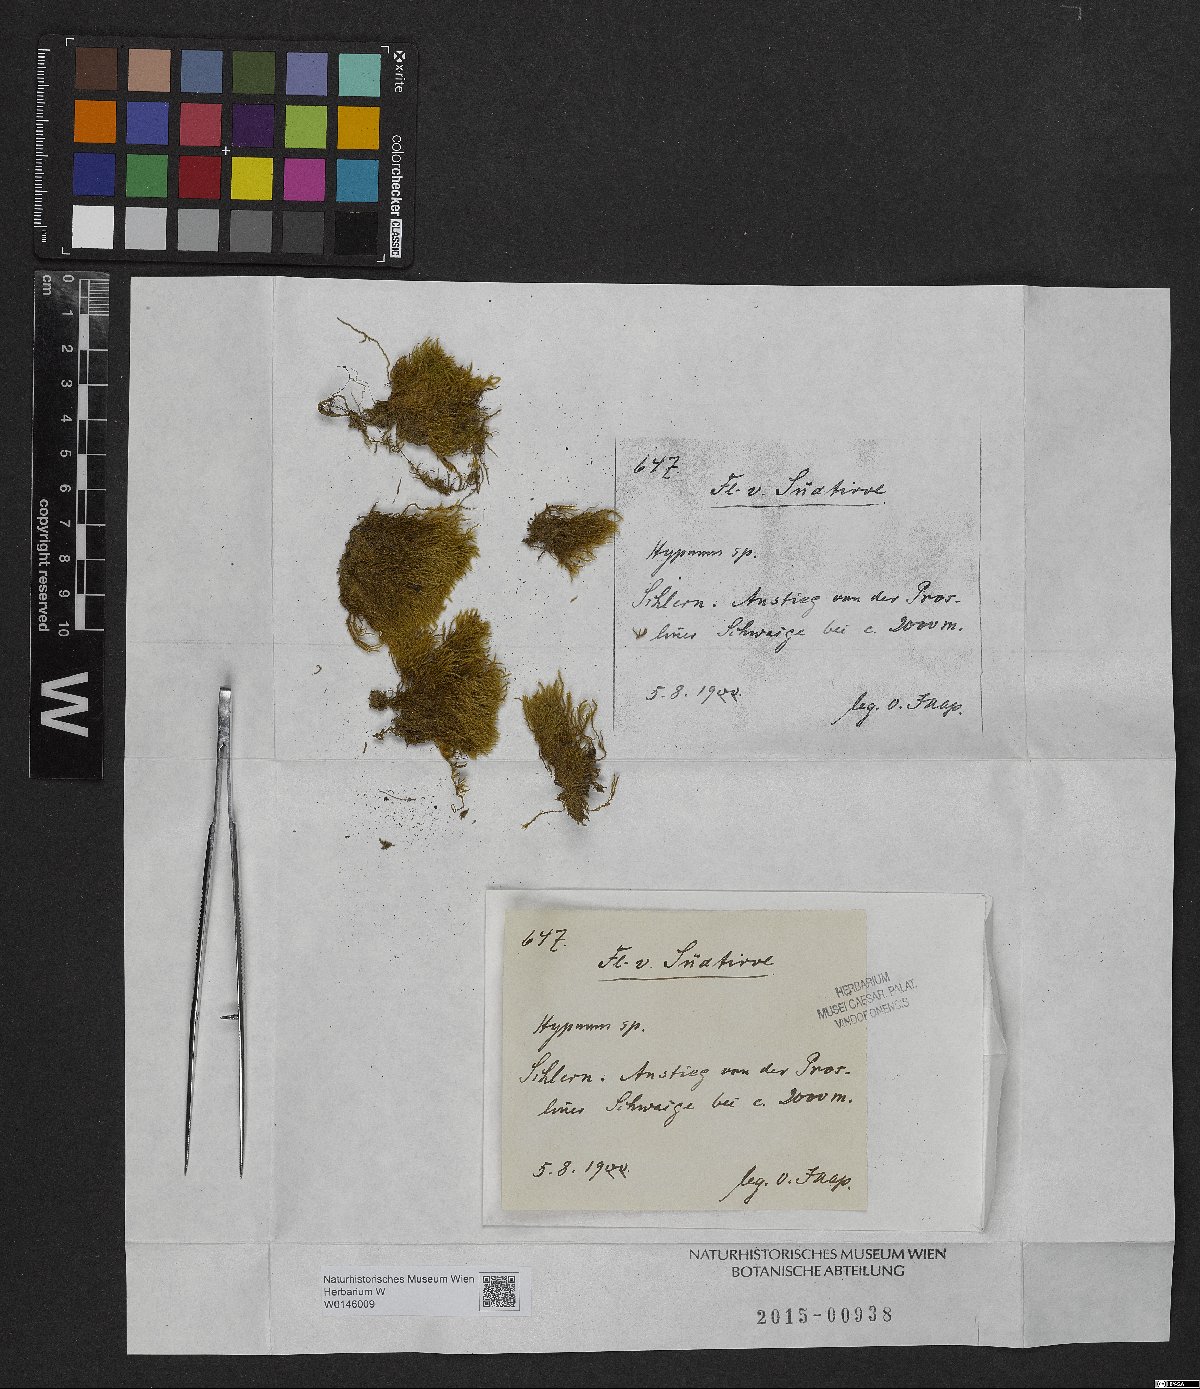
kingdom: Plantae
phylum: Bryophyta
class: Bryopsida
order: Hypnales
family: Hypnaceae
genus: Hypnum
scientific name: Hypnum
